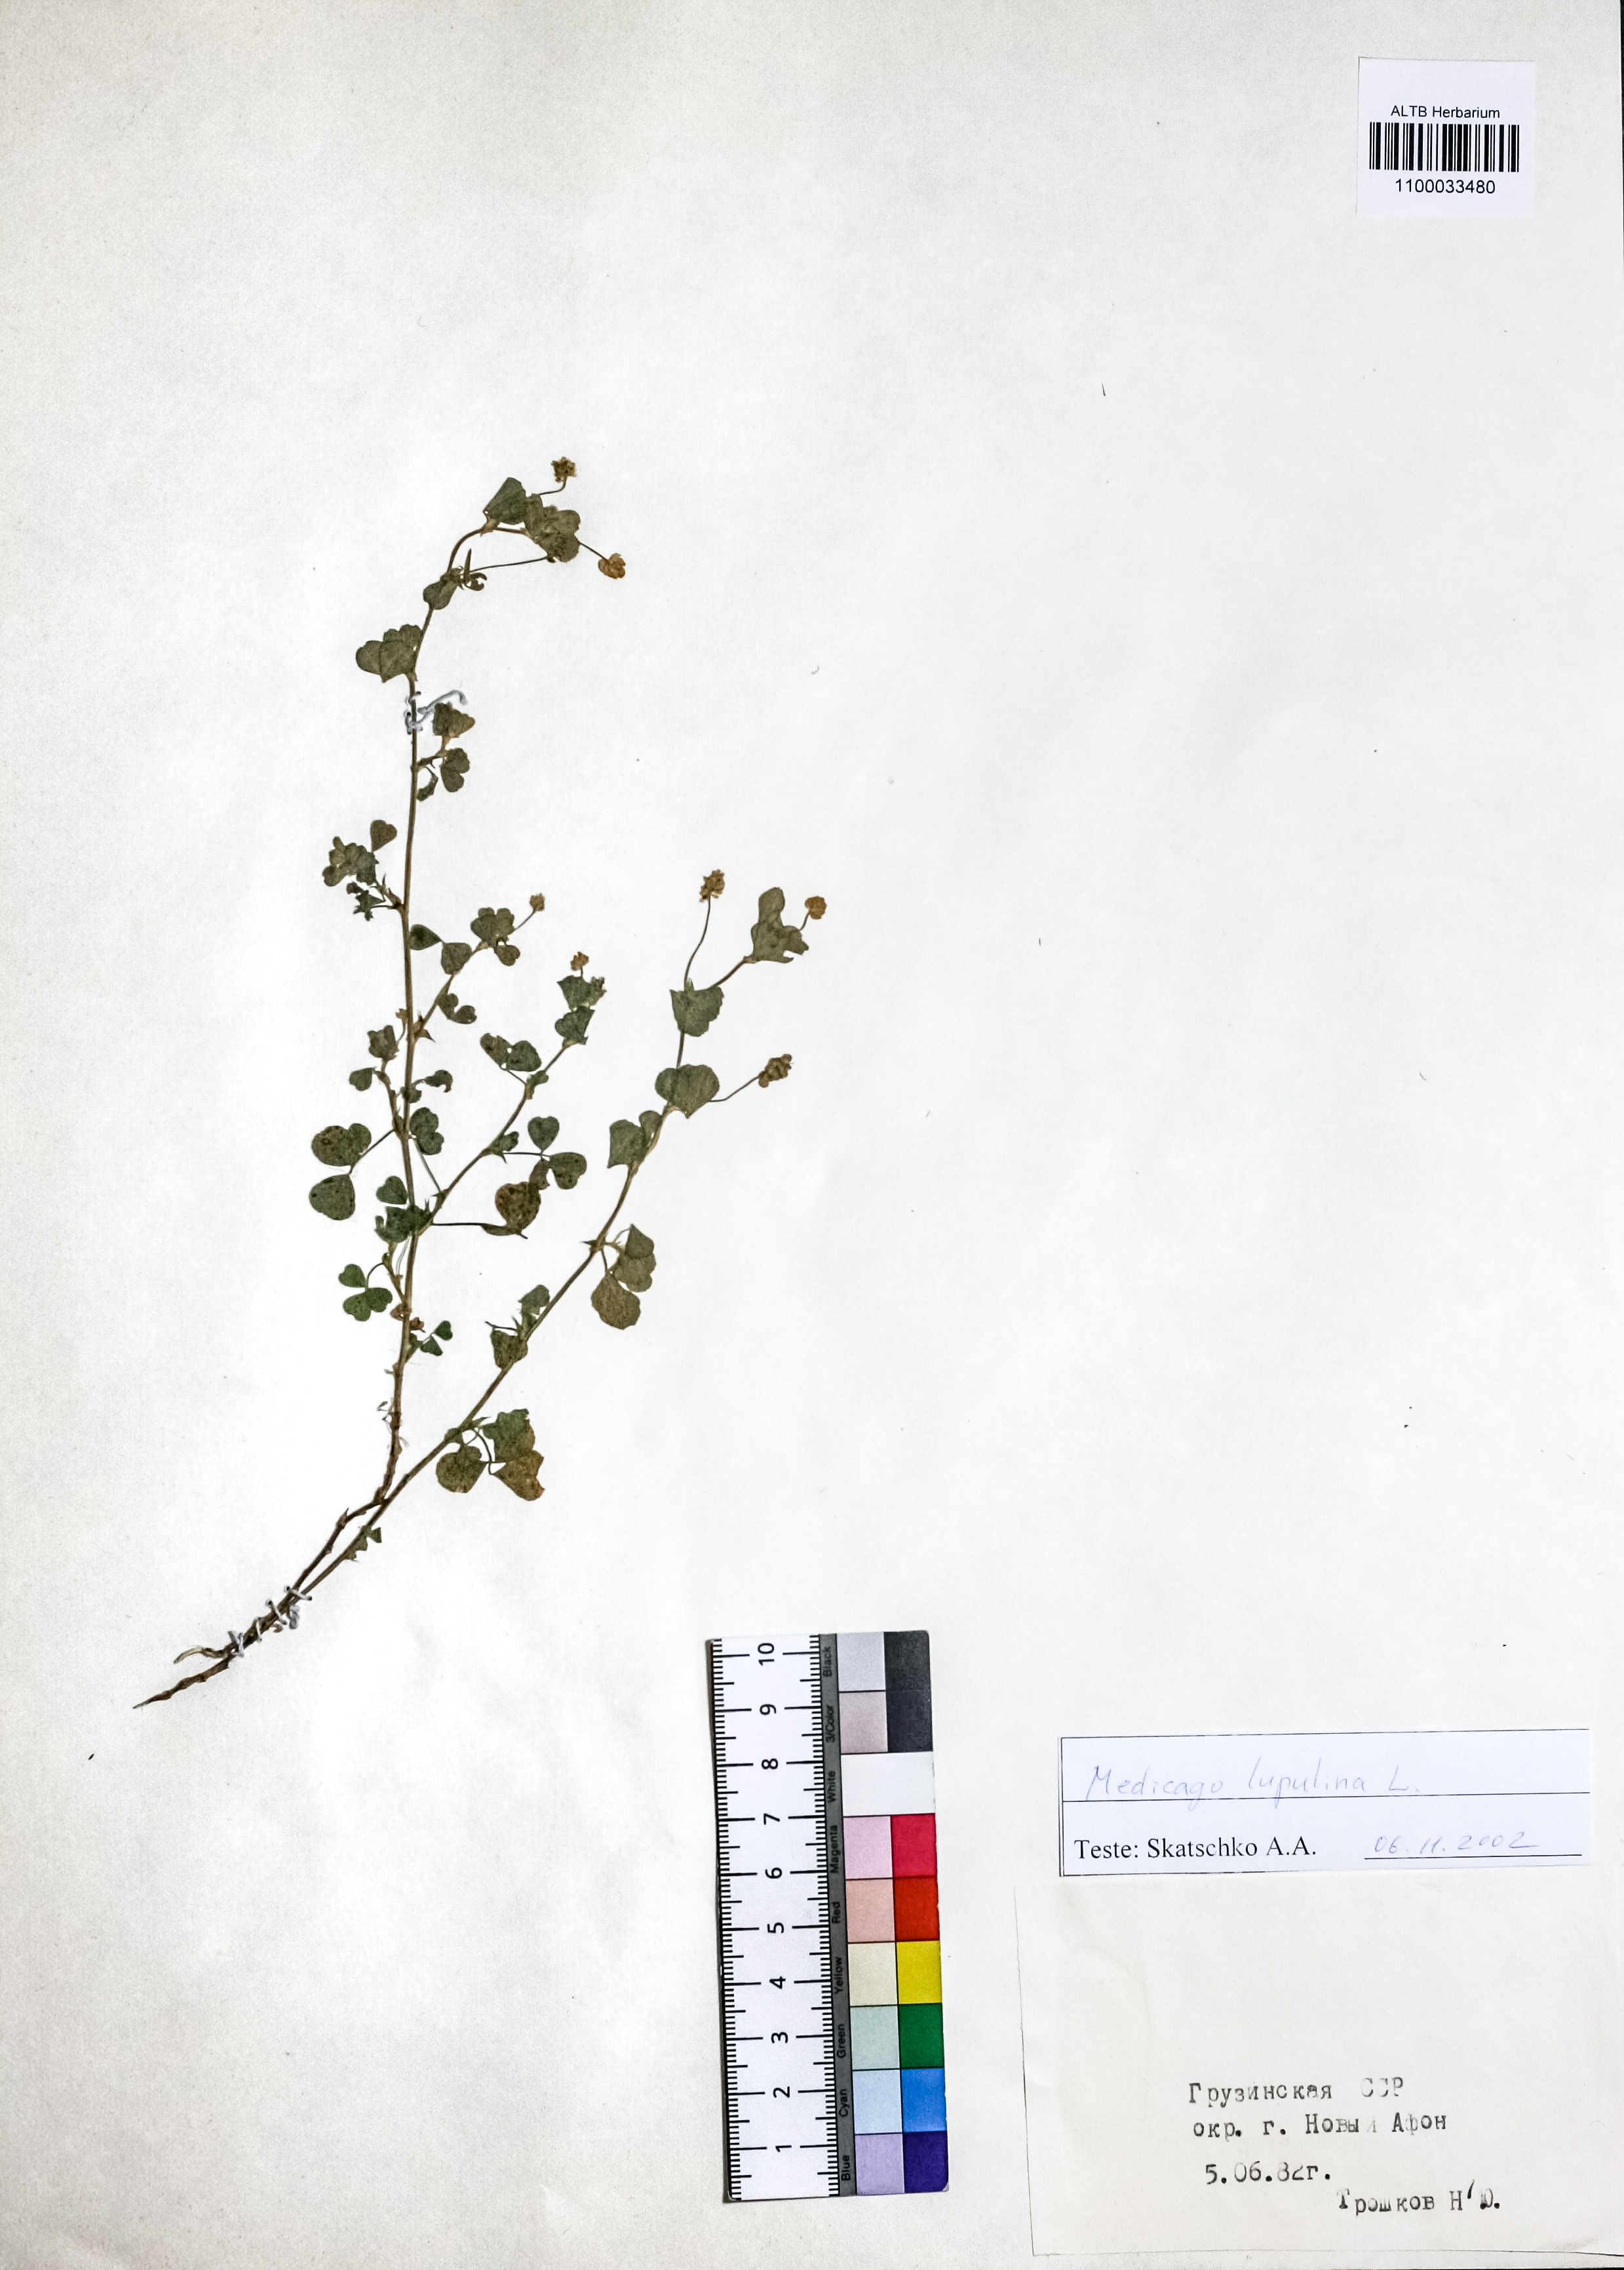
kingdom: Plantae
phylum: Tracheophyta
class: Magnoliopsida
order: Fabales
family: Fabaceae
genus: Medicago
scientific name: Medicago lupulina
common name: Black medick
